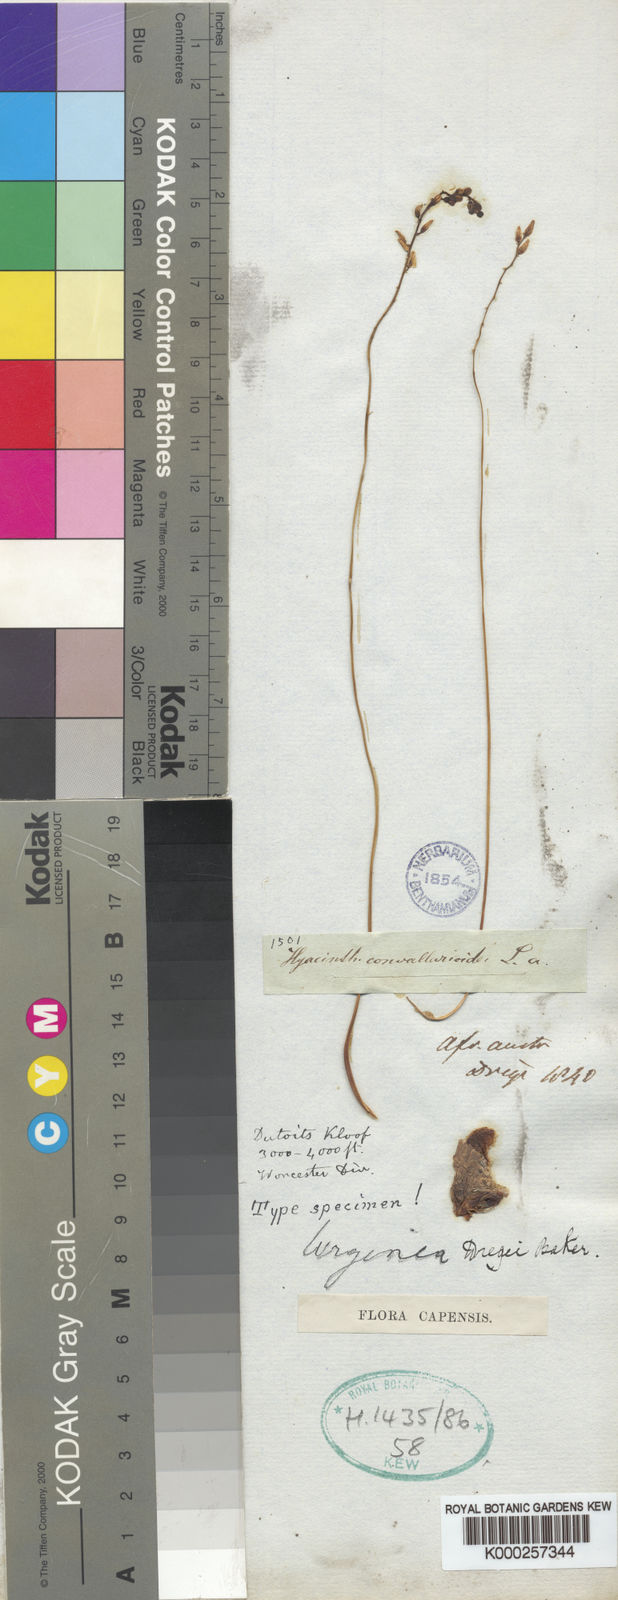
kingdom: Plantae
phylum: Tracheophyta
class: Liliopsida
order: Asparagales
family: Asparagaceae
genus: Drimia
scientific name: Drimia dregei
